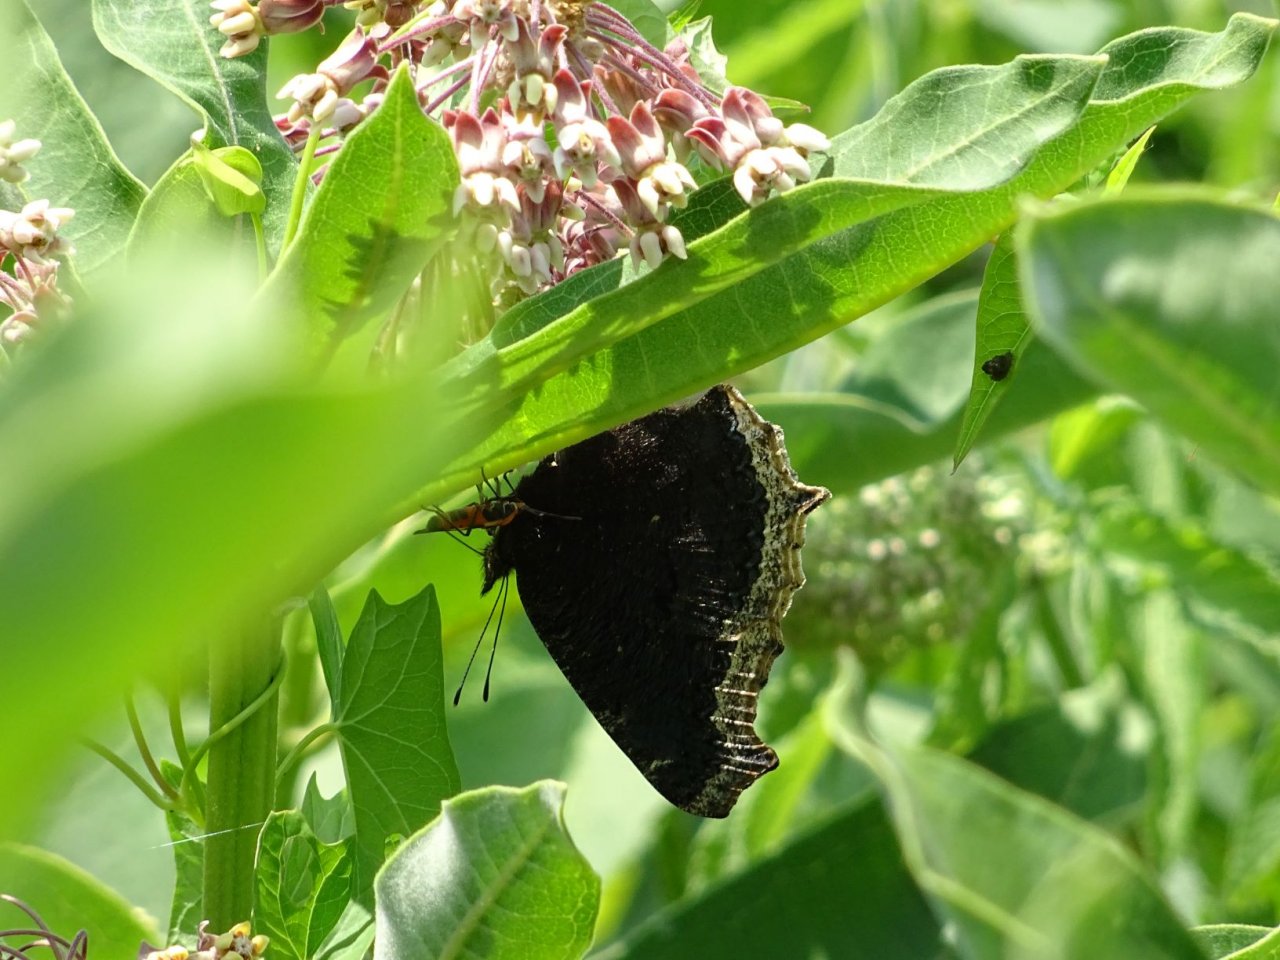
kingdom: Animalia
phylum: Arthropoda
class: Insecta
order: Lepidoptera
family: Nymphalidae
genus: Nymphalis
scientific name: Nymphalis antiopa
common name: Mourning Cloak
